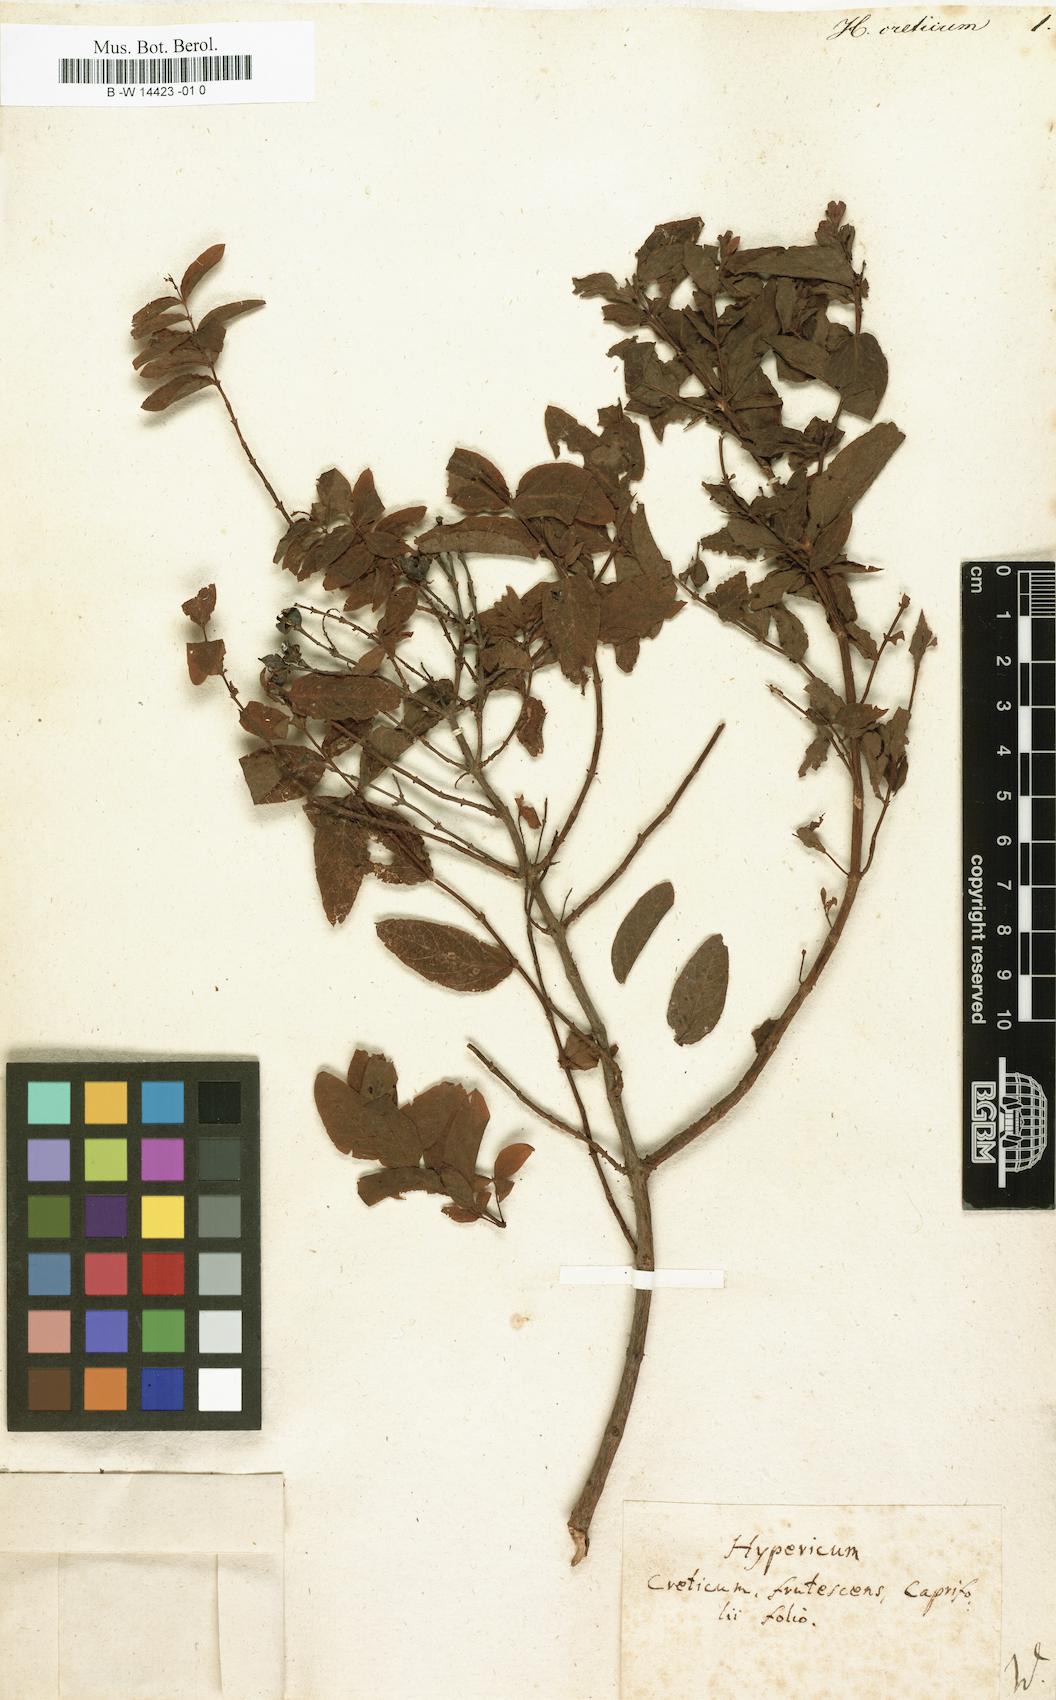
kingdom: Plantae
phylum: Tracheophyta
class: Magnoliopsida
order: Malpighiales
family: Hypericaceae
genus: Hypericum
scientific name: Hypericum aegypticum
